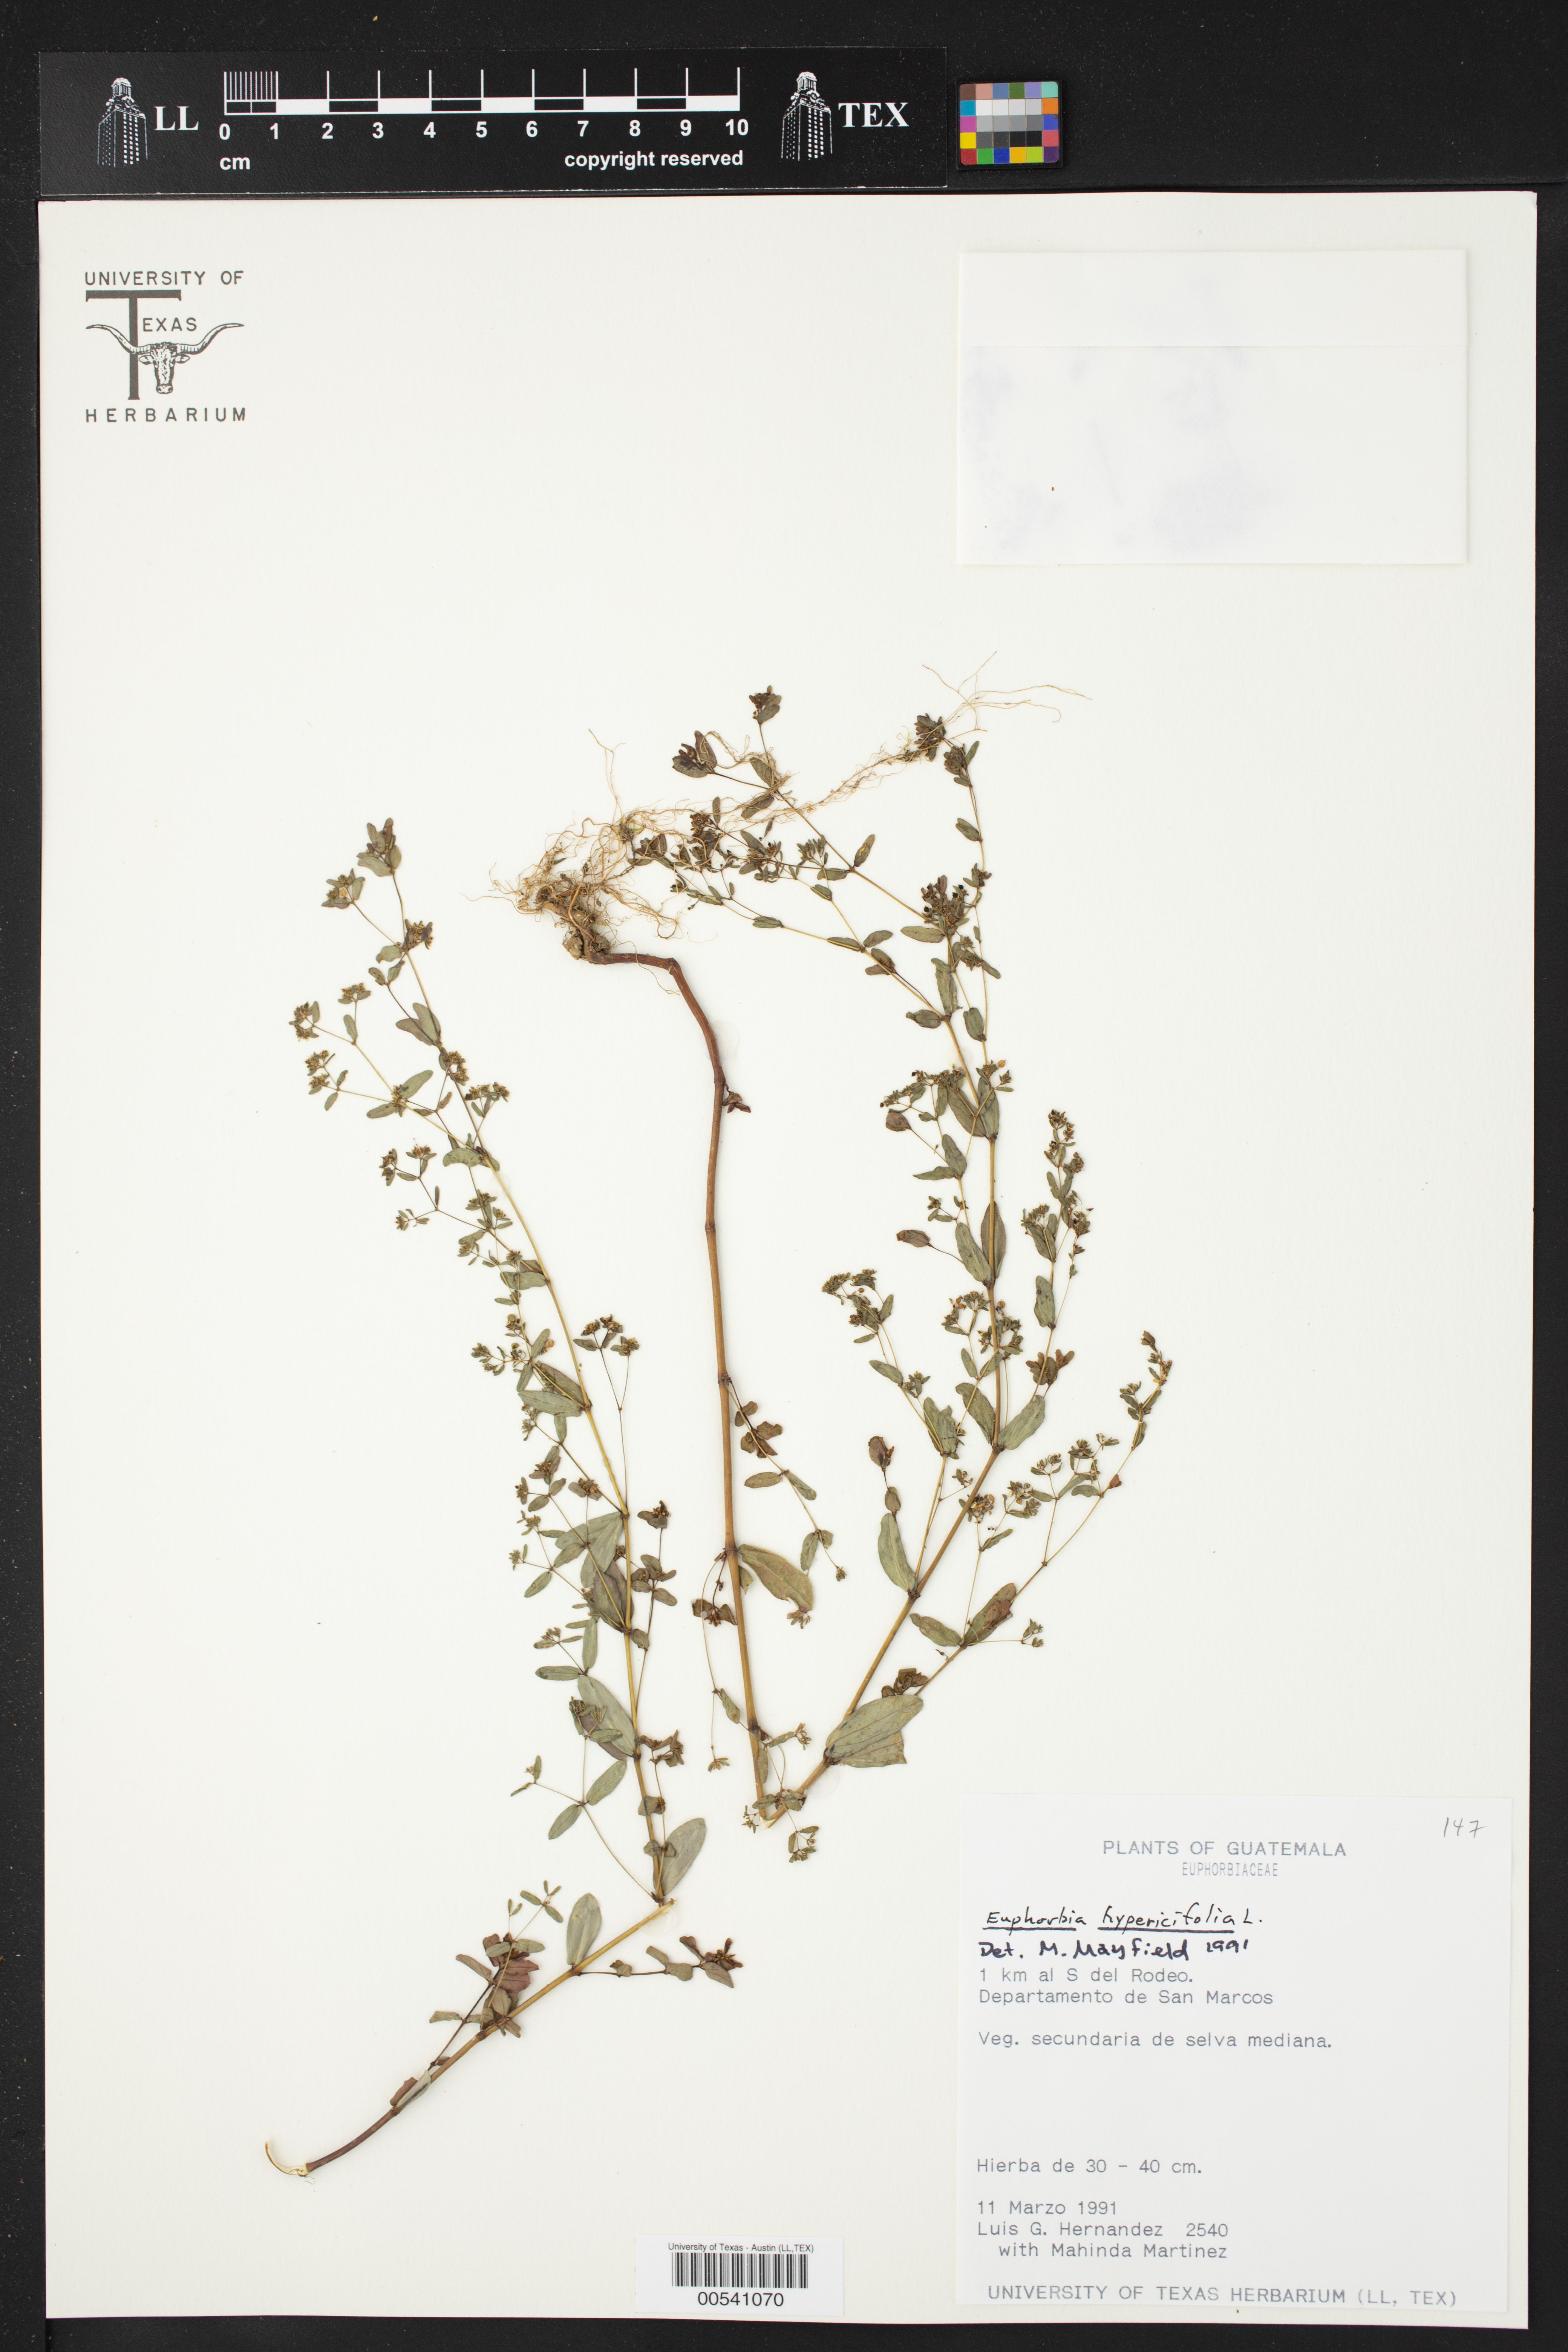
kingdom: Plantae
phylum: Tracheophyta
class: Magnoliopsida
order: Malpighiales
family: Euphorbiaceae
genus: Euphorbia
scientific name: Euphorbia hyssopifolia
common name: Hyssopleaf sandmat
